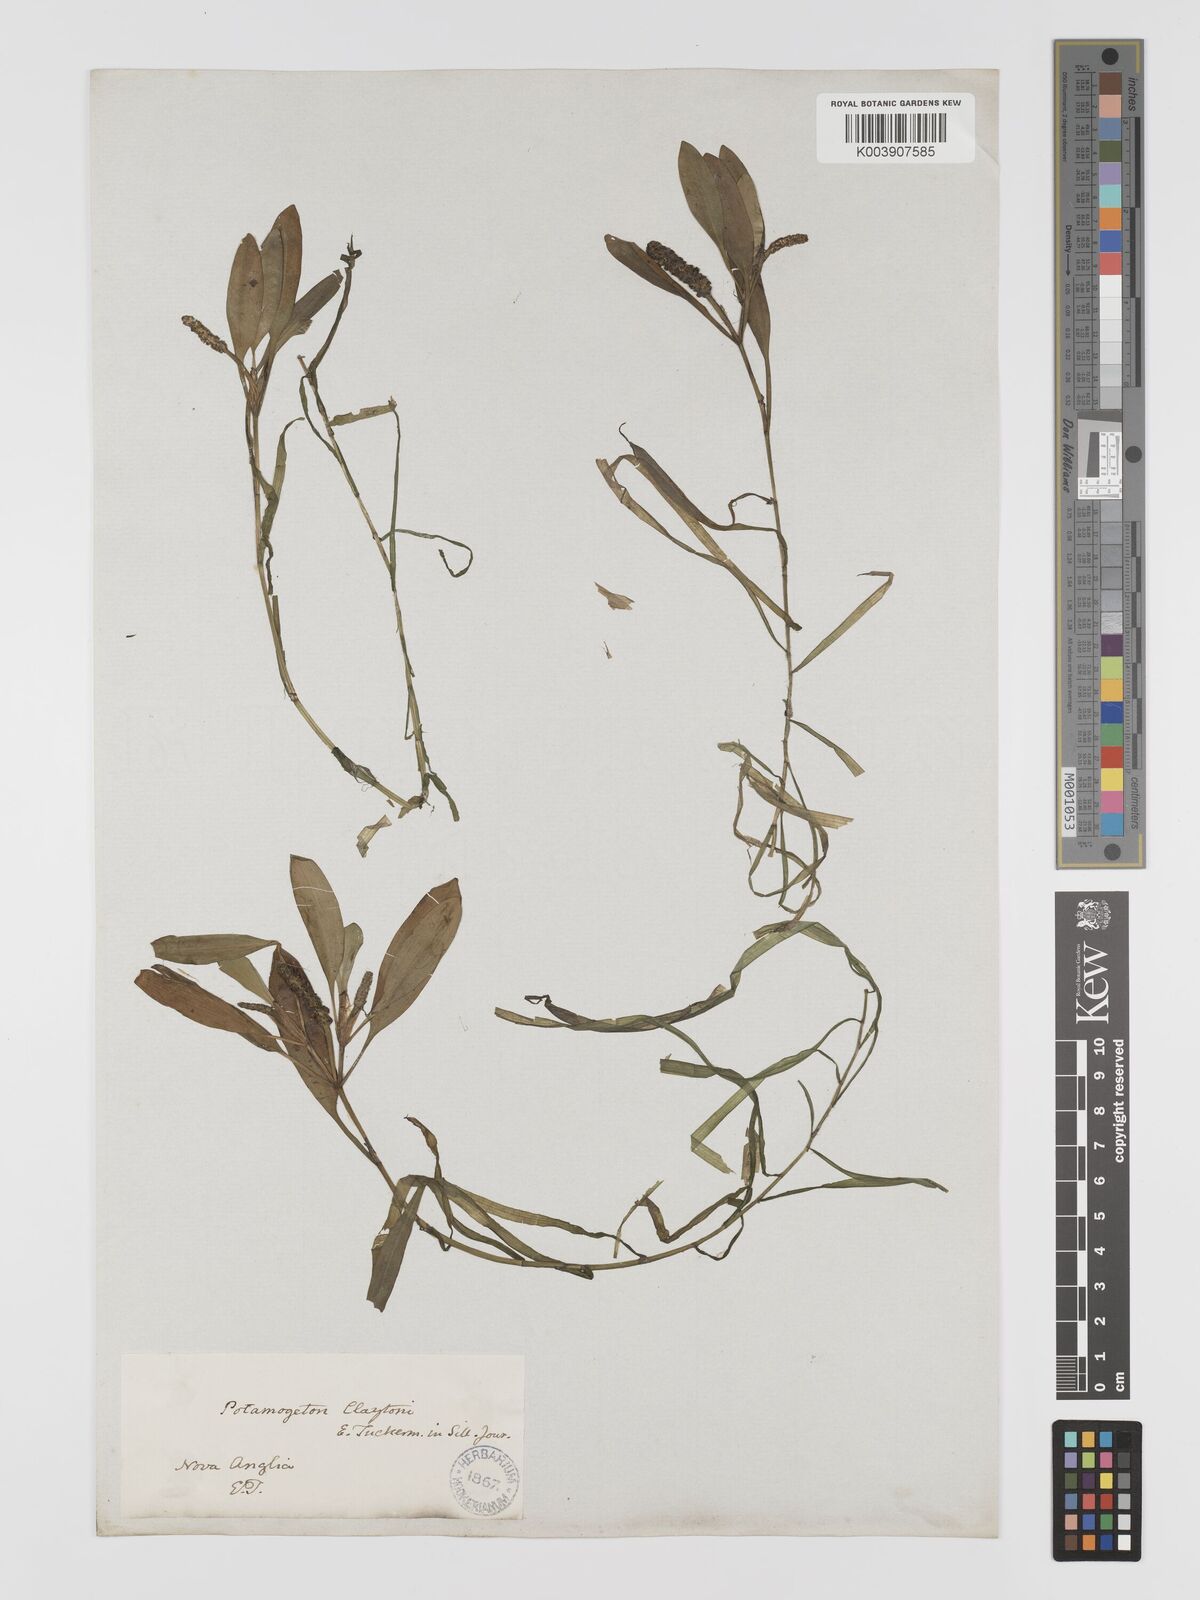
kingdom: Plantae
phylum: Tracheophyta
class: Liliopsida
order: Alismatales
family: Potamogetonaceae
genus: Potamogeton
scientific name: Potamogeton epihydrus
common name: American pondweed
